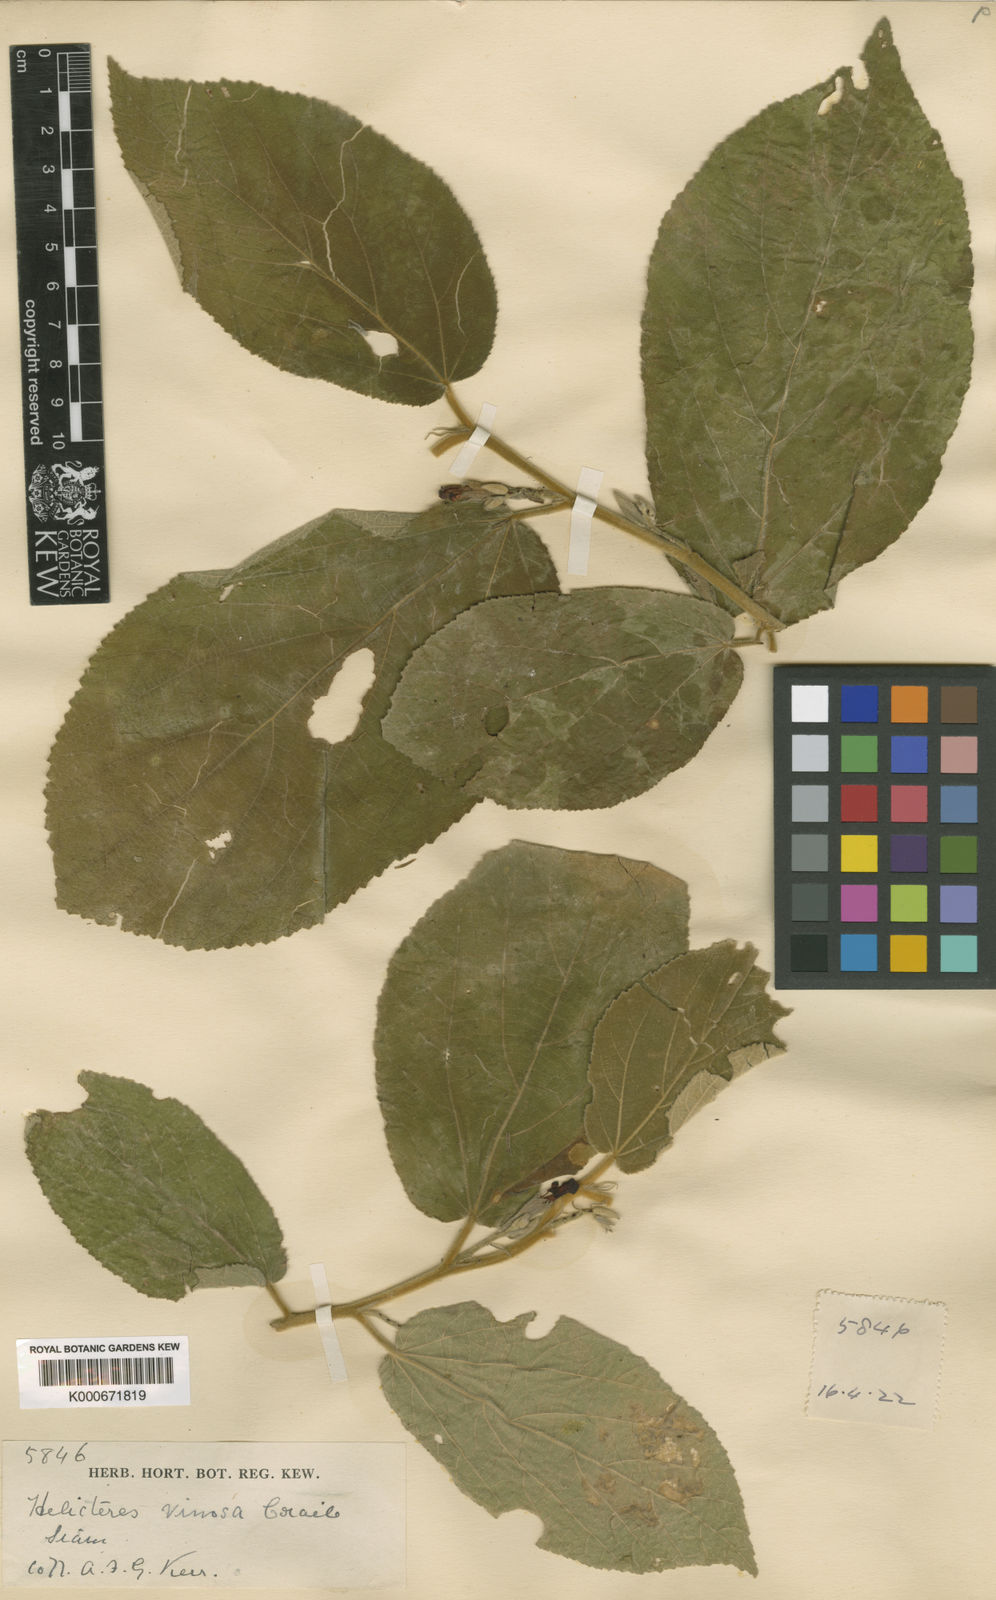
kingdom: Plantae
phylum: Tracheophyta
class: Magnoliopsida
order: Malvales
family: Malvaceae
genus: Helicteres
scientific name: Helicteres hirsuta
